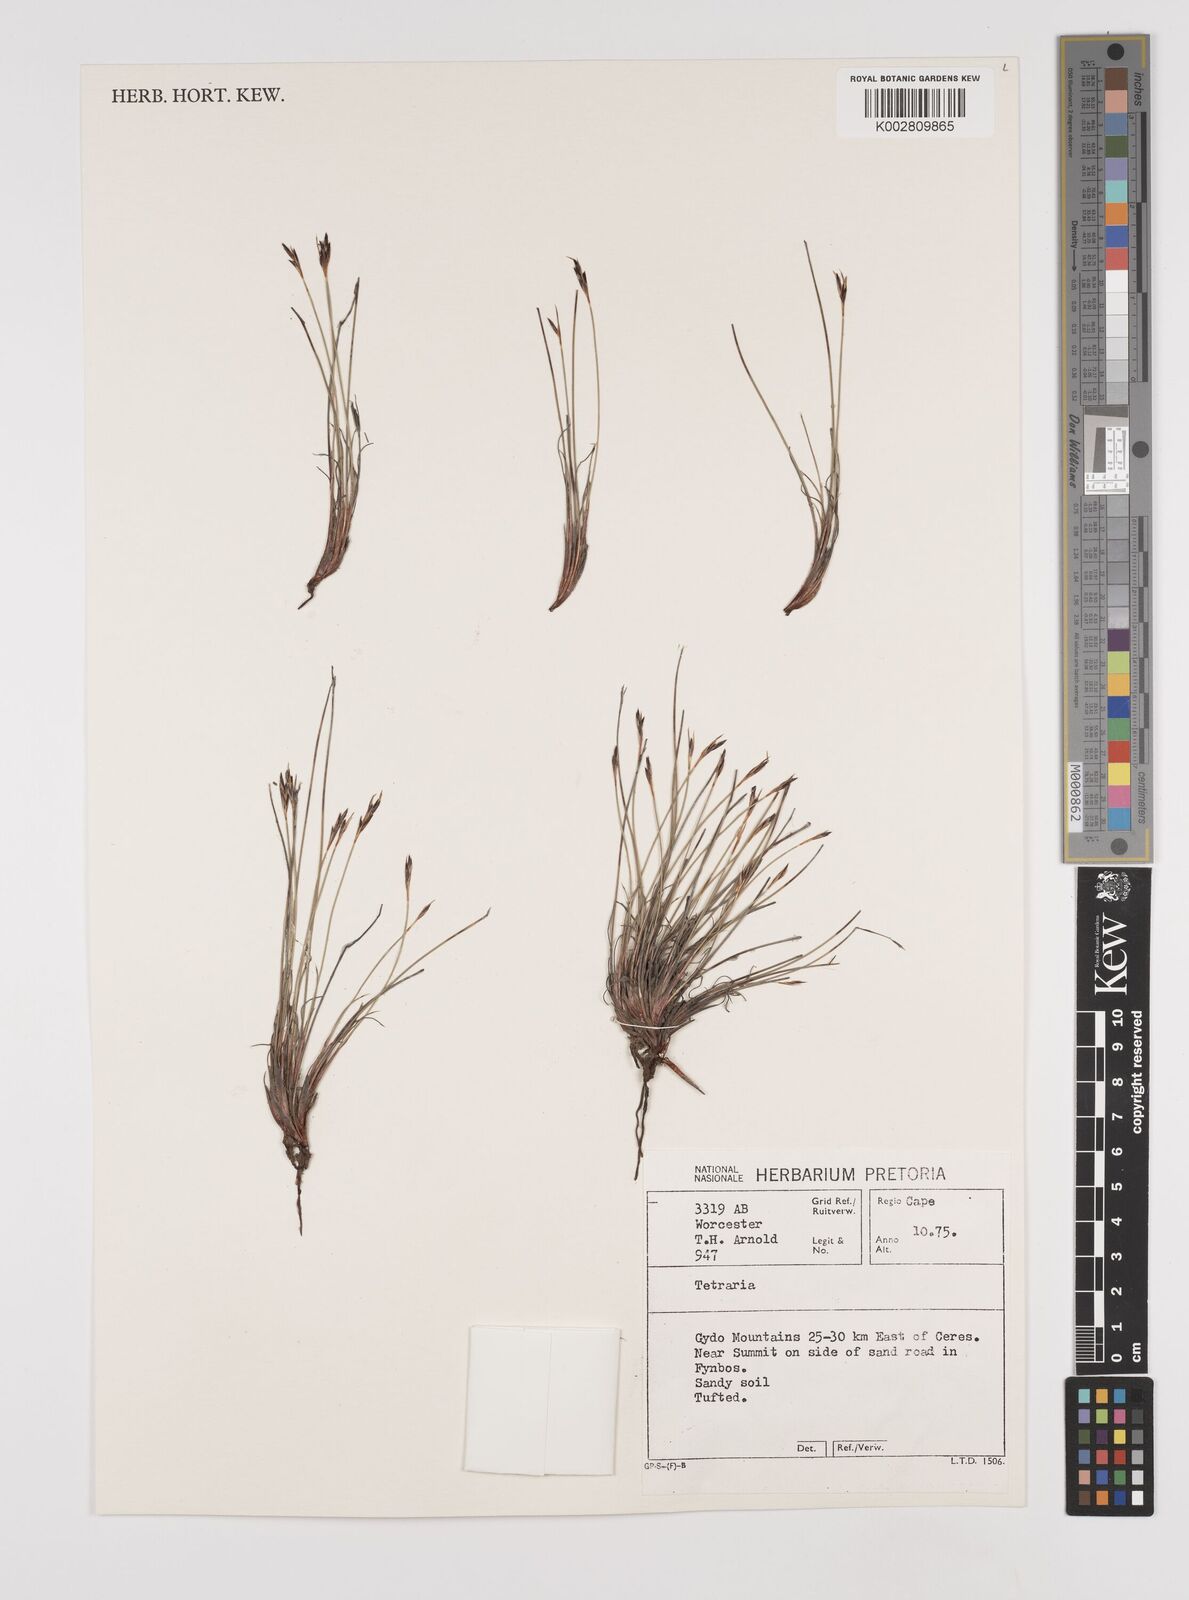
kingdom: Plantae
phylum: Tracheophyta
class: Liliopsida
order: Poales
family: Cyperaceae
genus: Schoenus
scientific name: Schoenus
